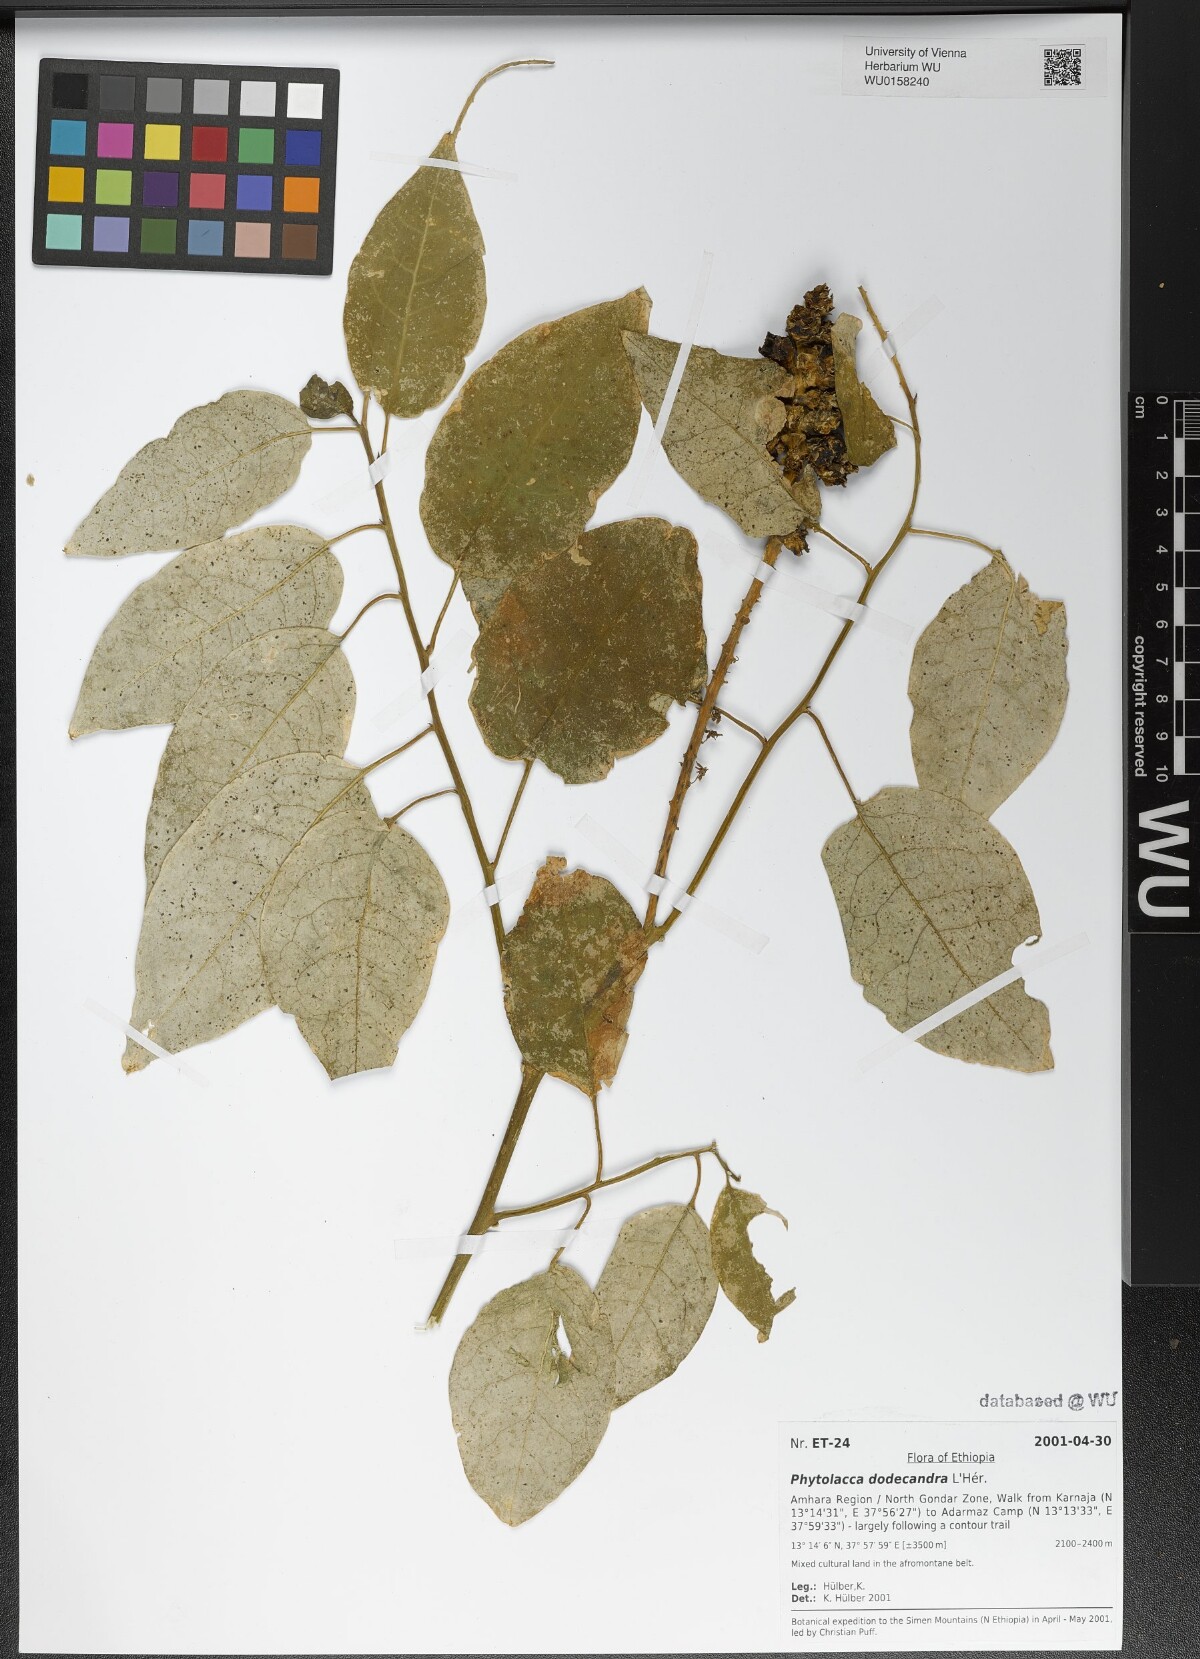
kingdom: Plantae
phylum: Tracheophyta
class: Magnoliopsida
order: Caryophyllales
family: Phytolaccaceae
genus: Phytolacca
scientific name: Phytolacca dodecandra
